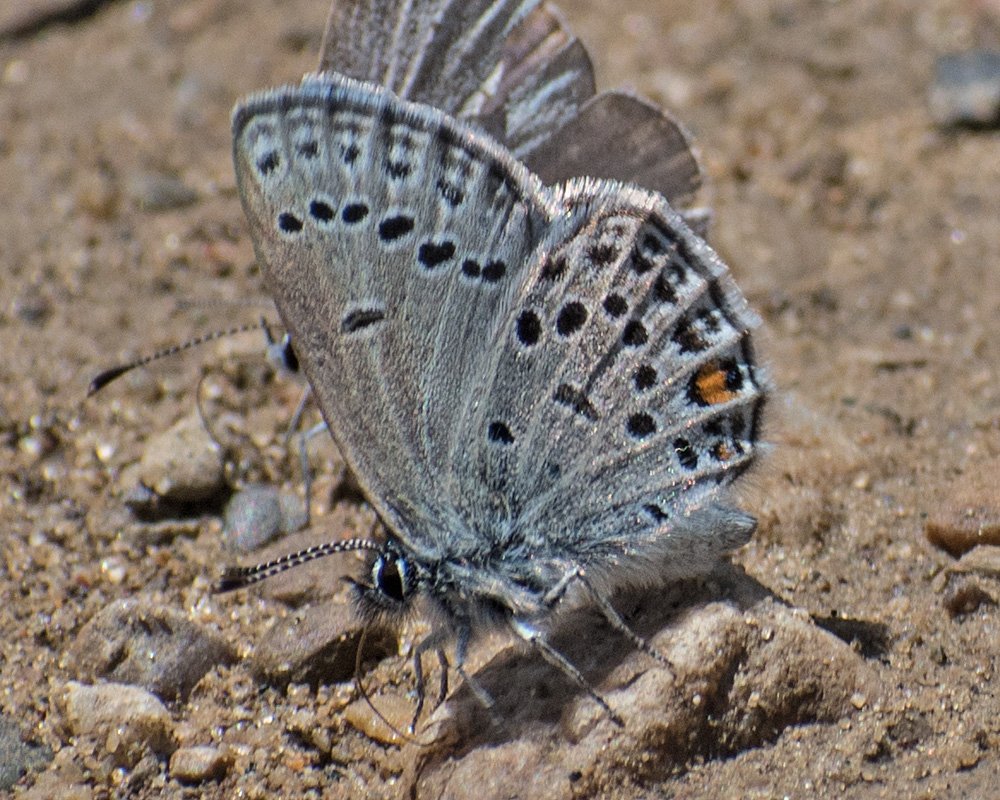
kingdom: Animalia
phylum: Arthropoda
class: Insecta
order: Lepidoptera
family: Lycaenidae
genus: Vacciniina
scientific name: Vacciniina optilete
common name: Cranberry Blue
